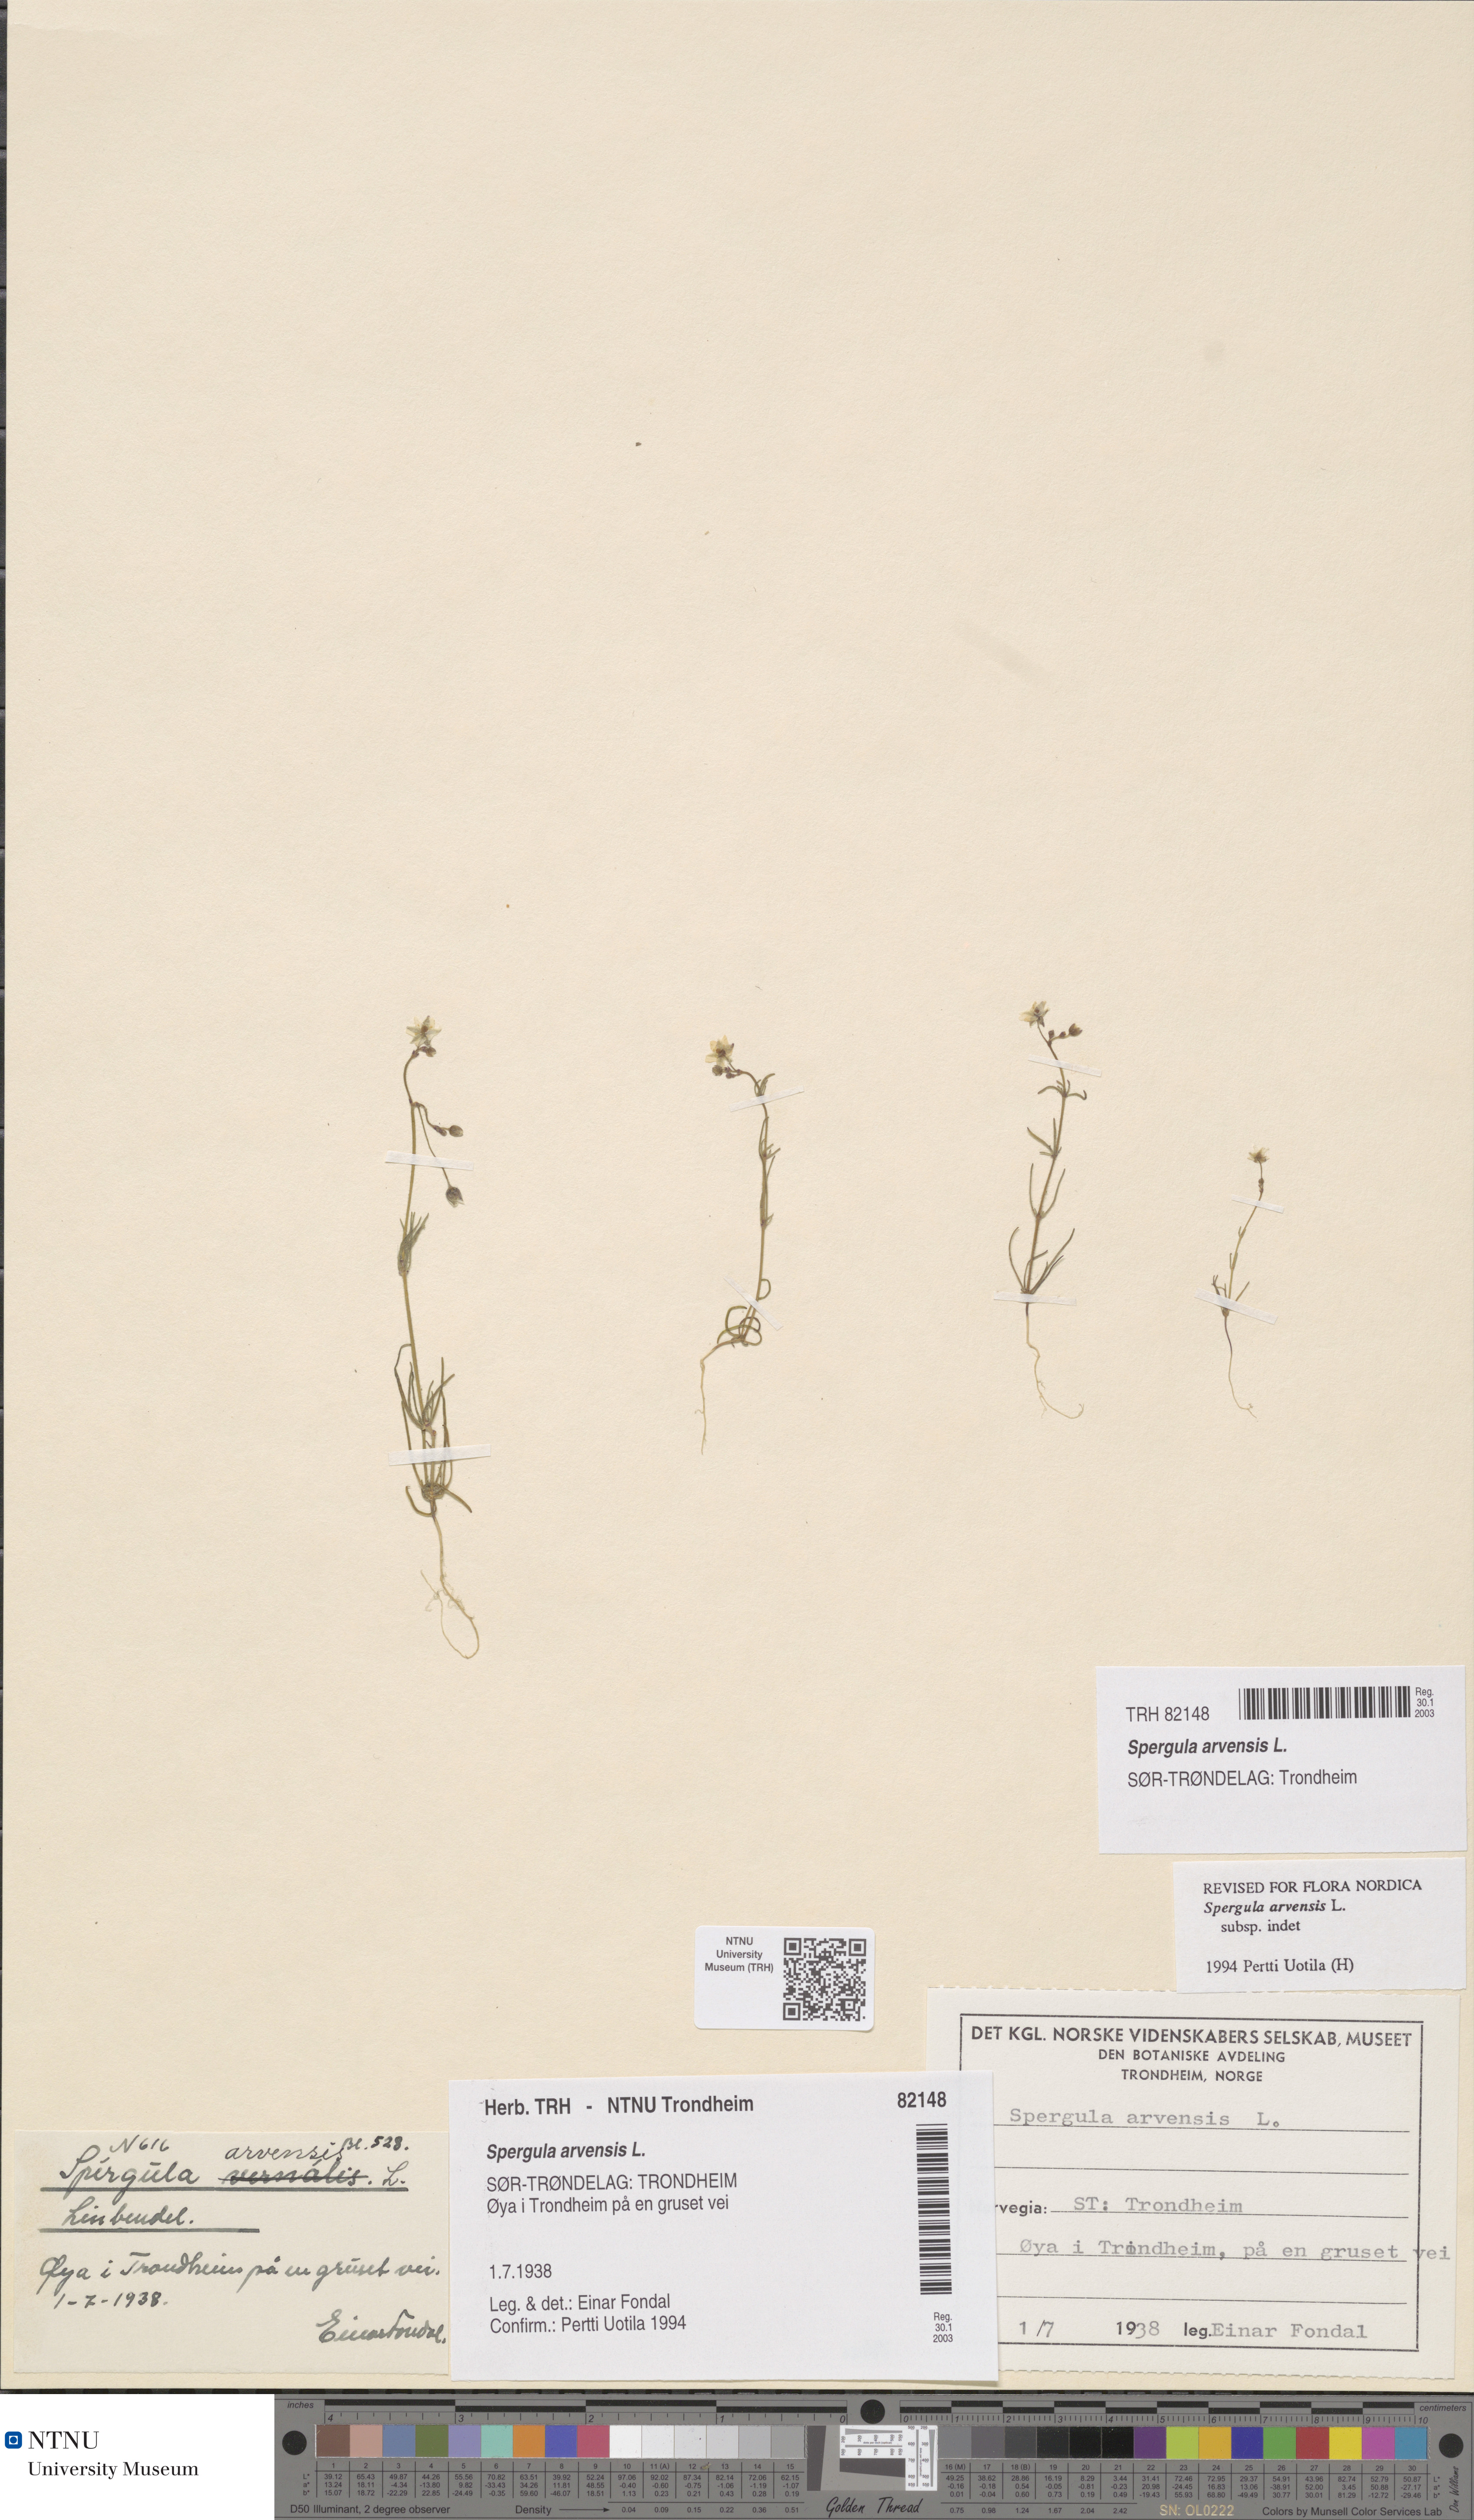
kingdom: Plantae
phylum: Tracheophyta
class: Magnoliopsida
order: Caryophyllales
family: Caryophyllaceae
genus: Spergula
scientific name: Spergula arvensis
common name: Corn spurrey
